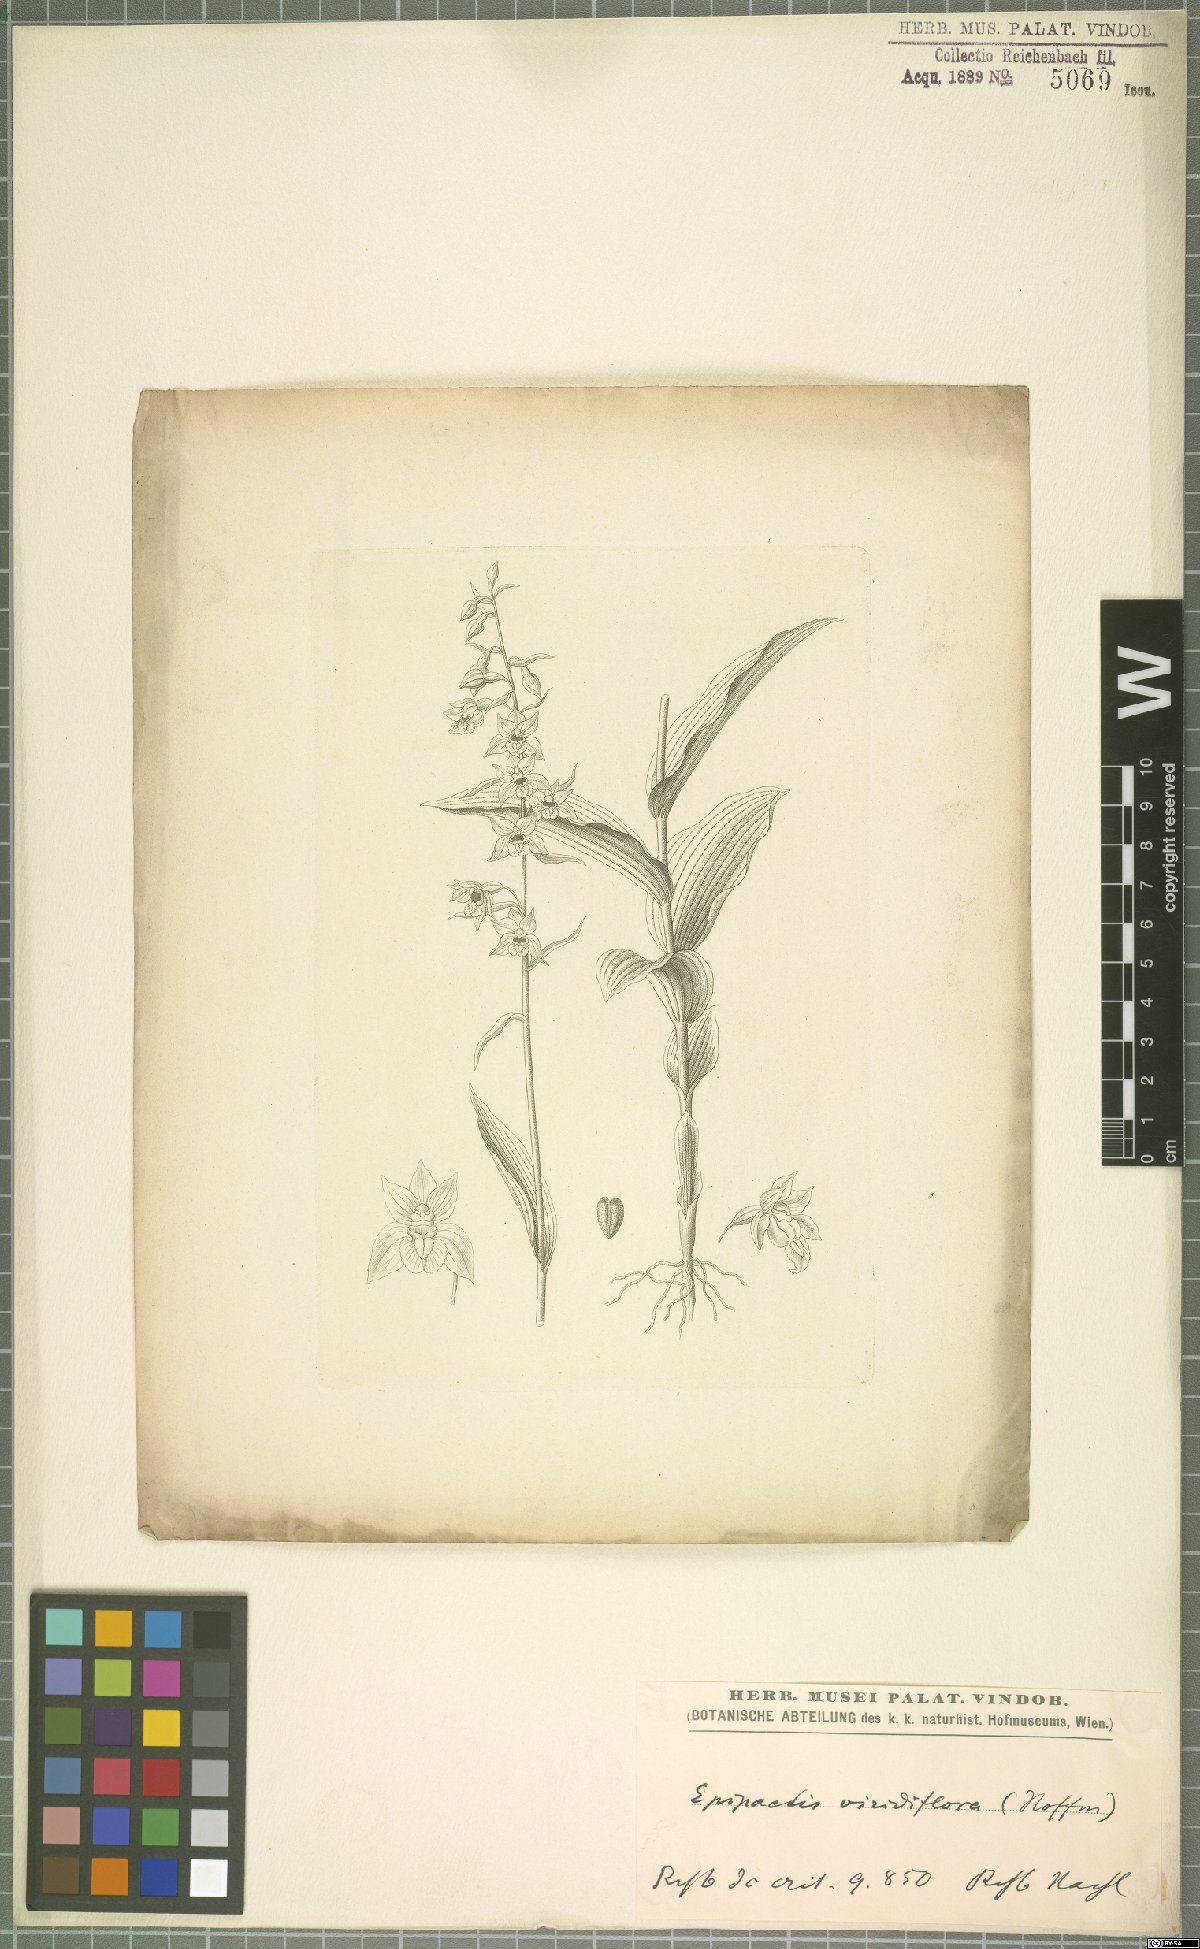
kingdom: Plantae
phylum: Tracheophyta
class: Liliopsida
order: Asparagales
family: Orchidaceae
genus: Epipactis
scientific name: Epipactis purpurata
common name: Violet helleborine
